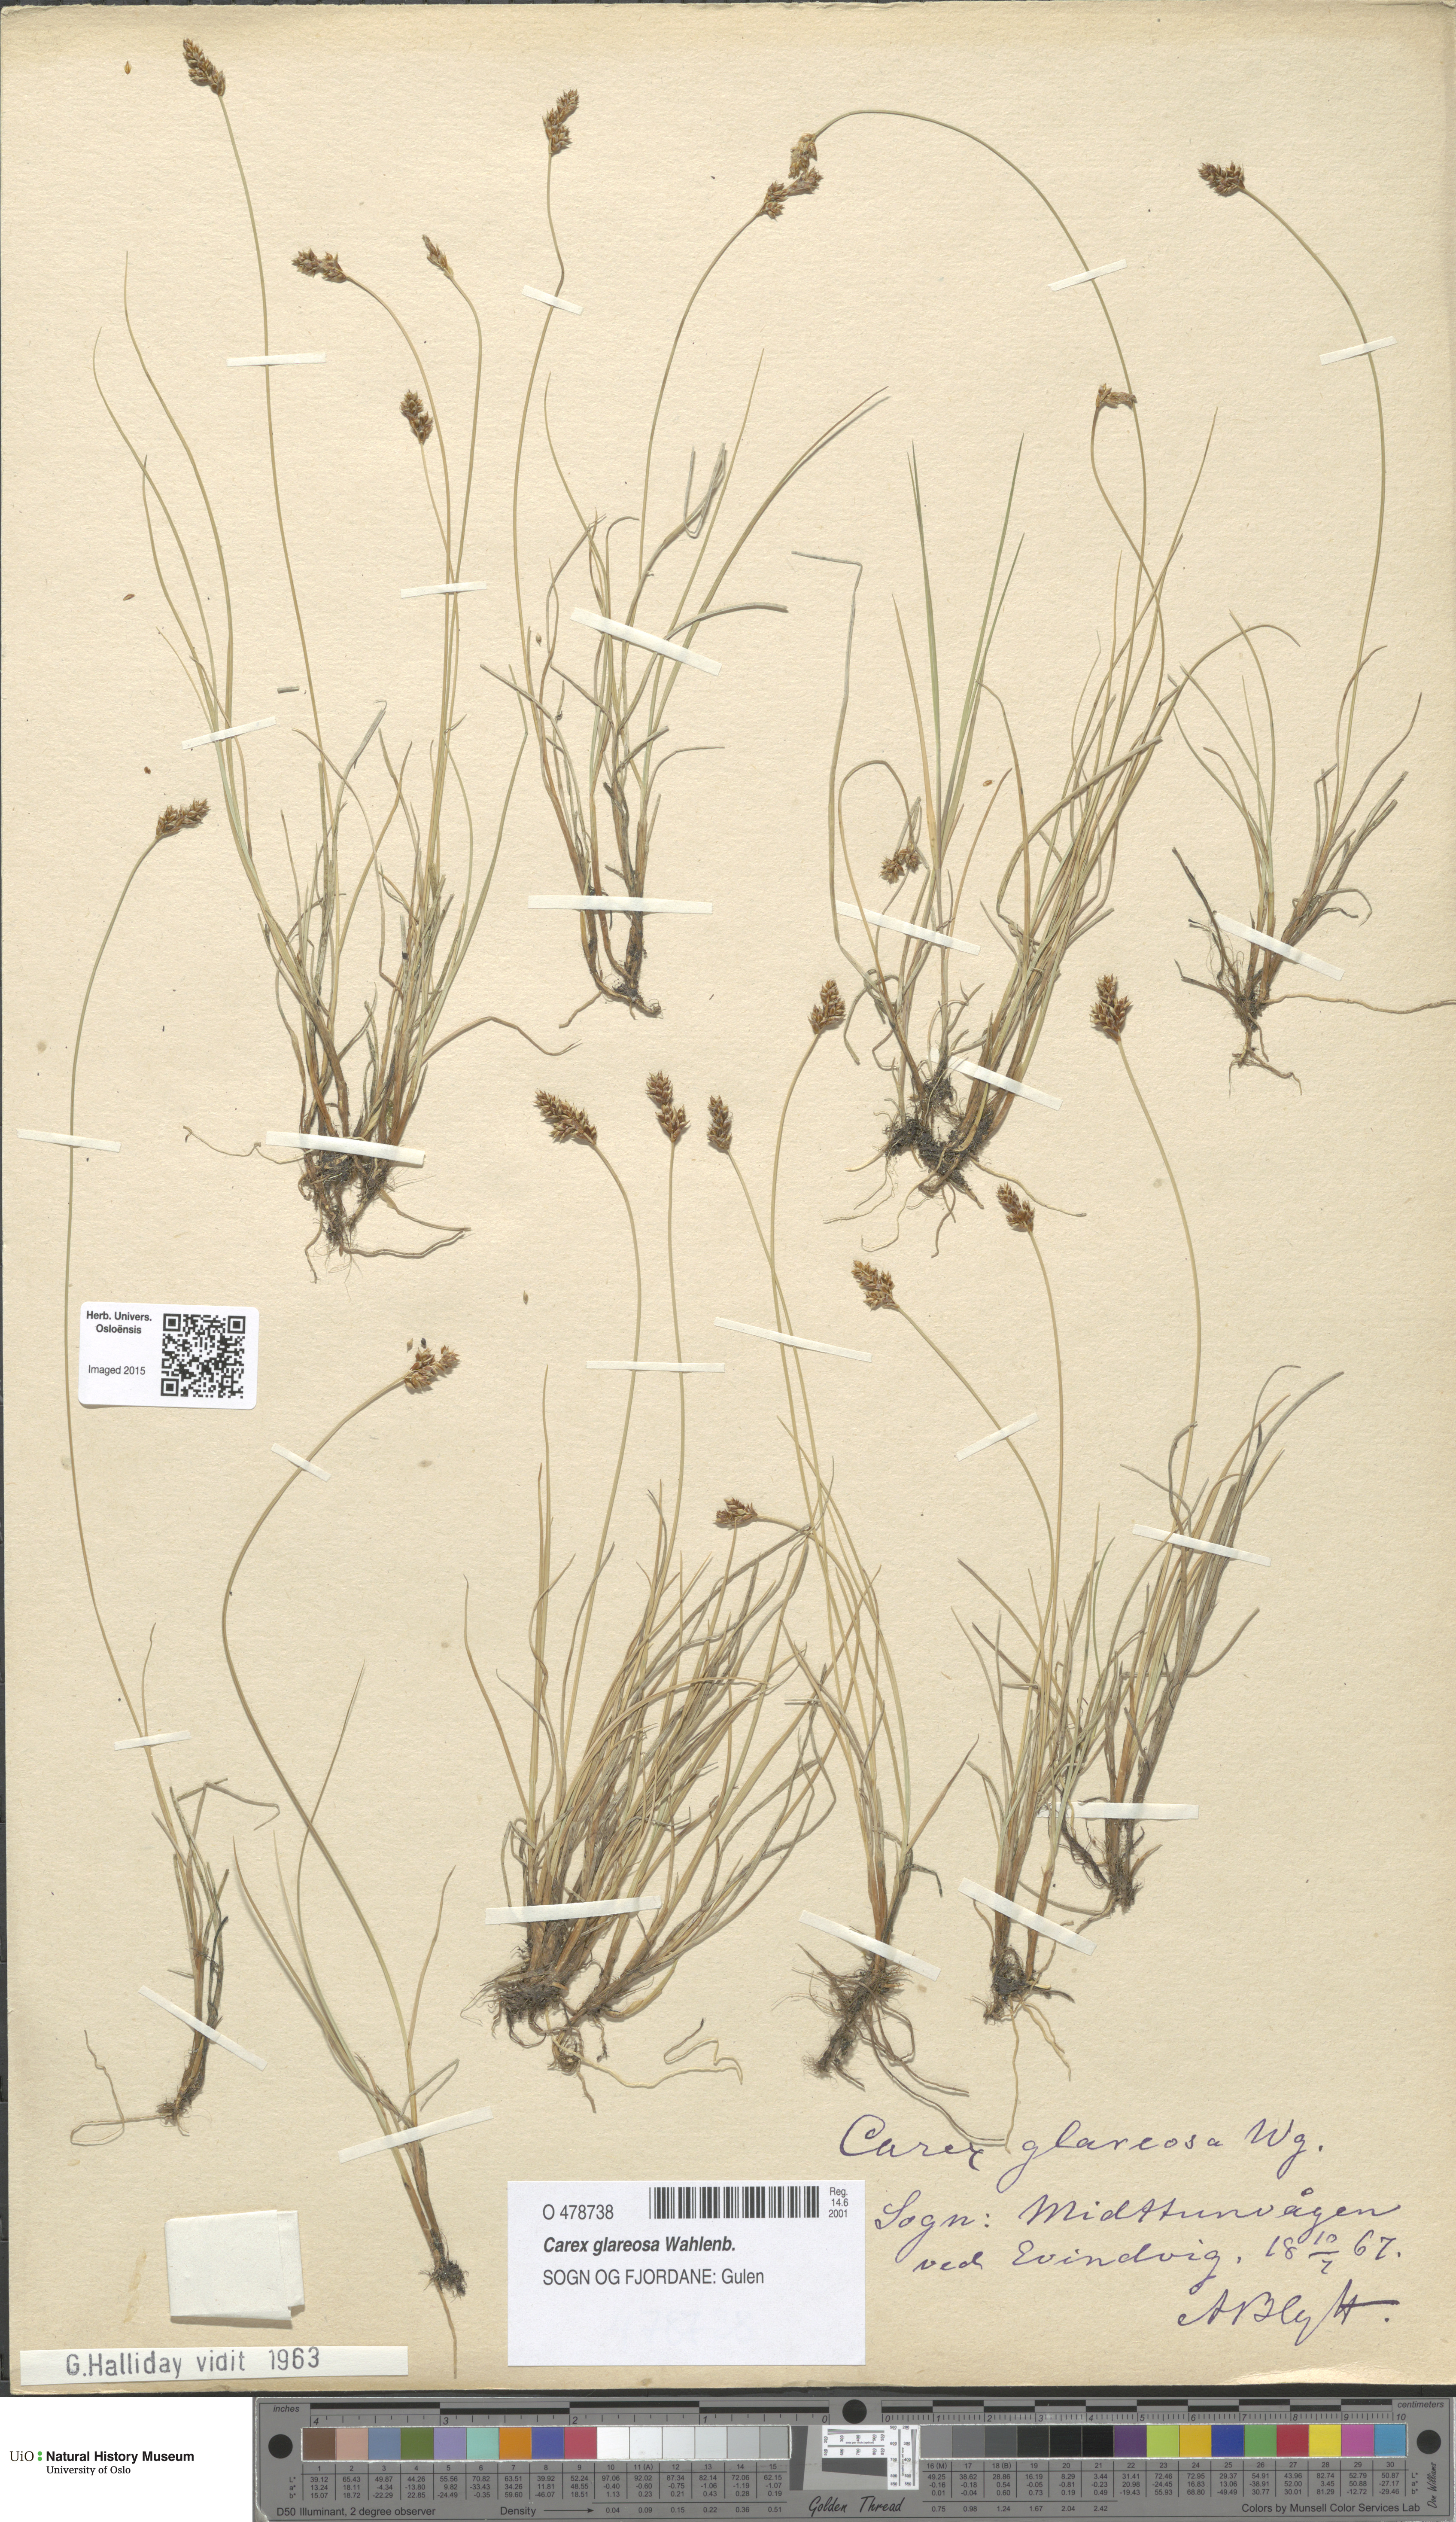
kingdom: Plantae
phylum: Tracheophyta
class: Liliopsida
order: Poales
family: Cyperaceae
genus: Carex
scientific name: Carex glareosa
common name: Clustered sedge
